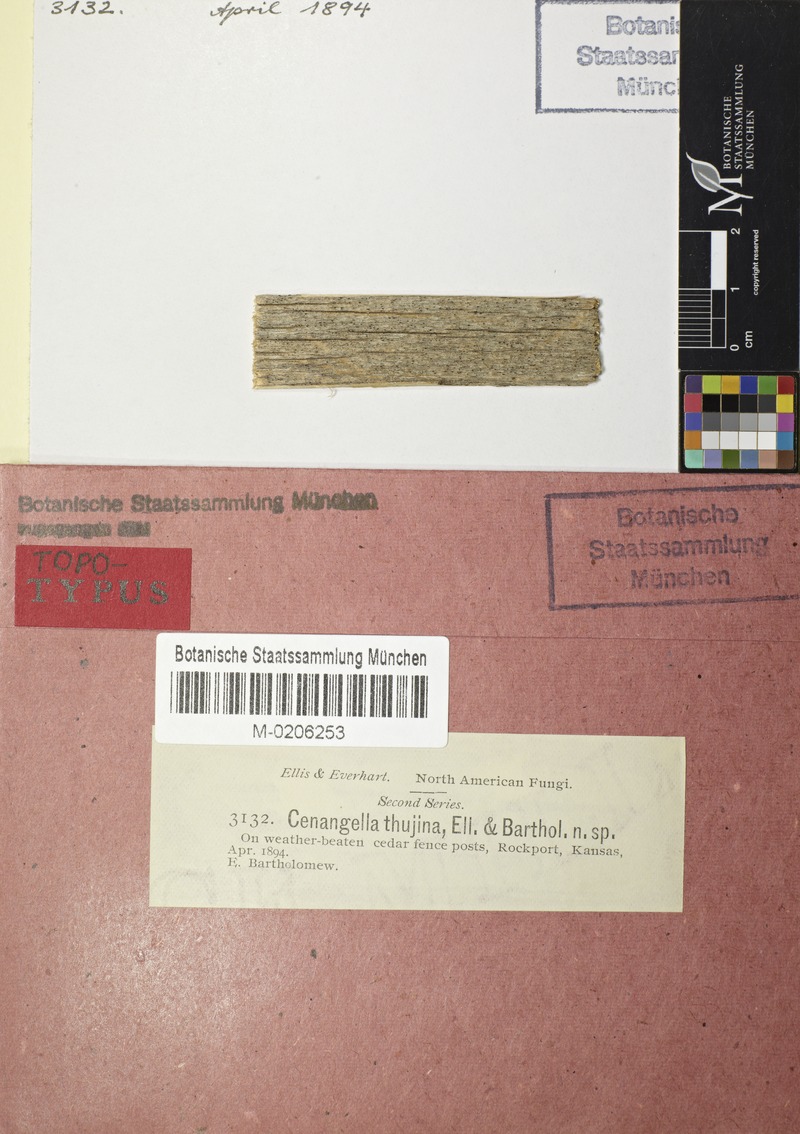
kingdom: Fungi
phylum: Ascomycota
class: Leotiomycetes
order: Helotiales
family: Dermateaceae
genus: Cenangella
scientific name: Cenangella
